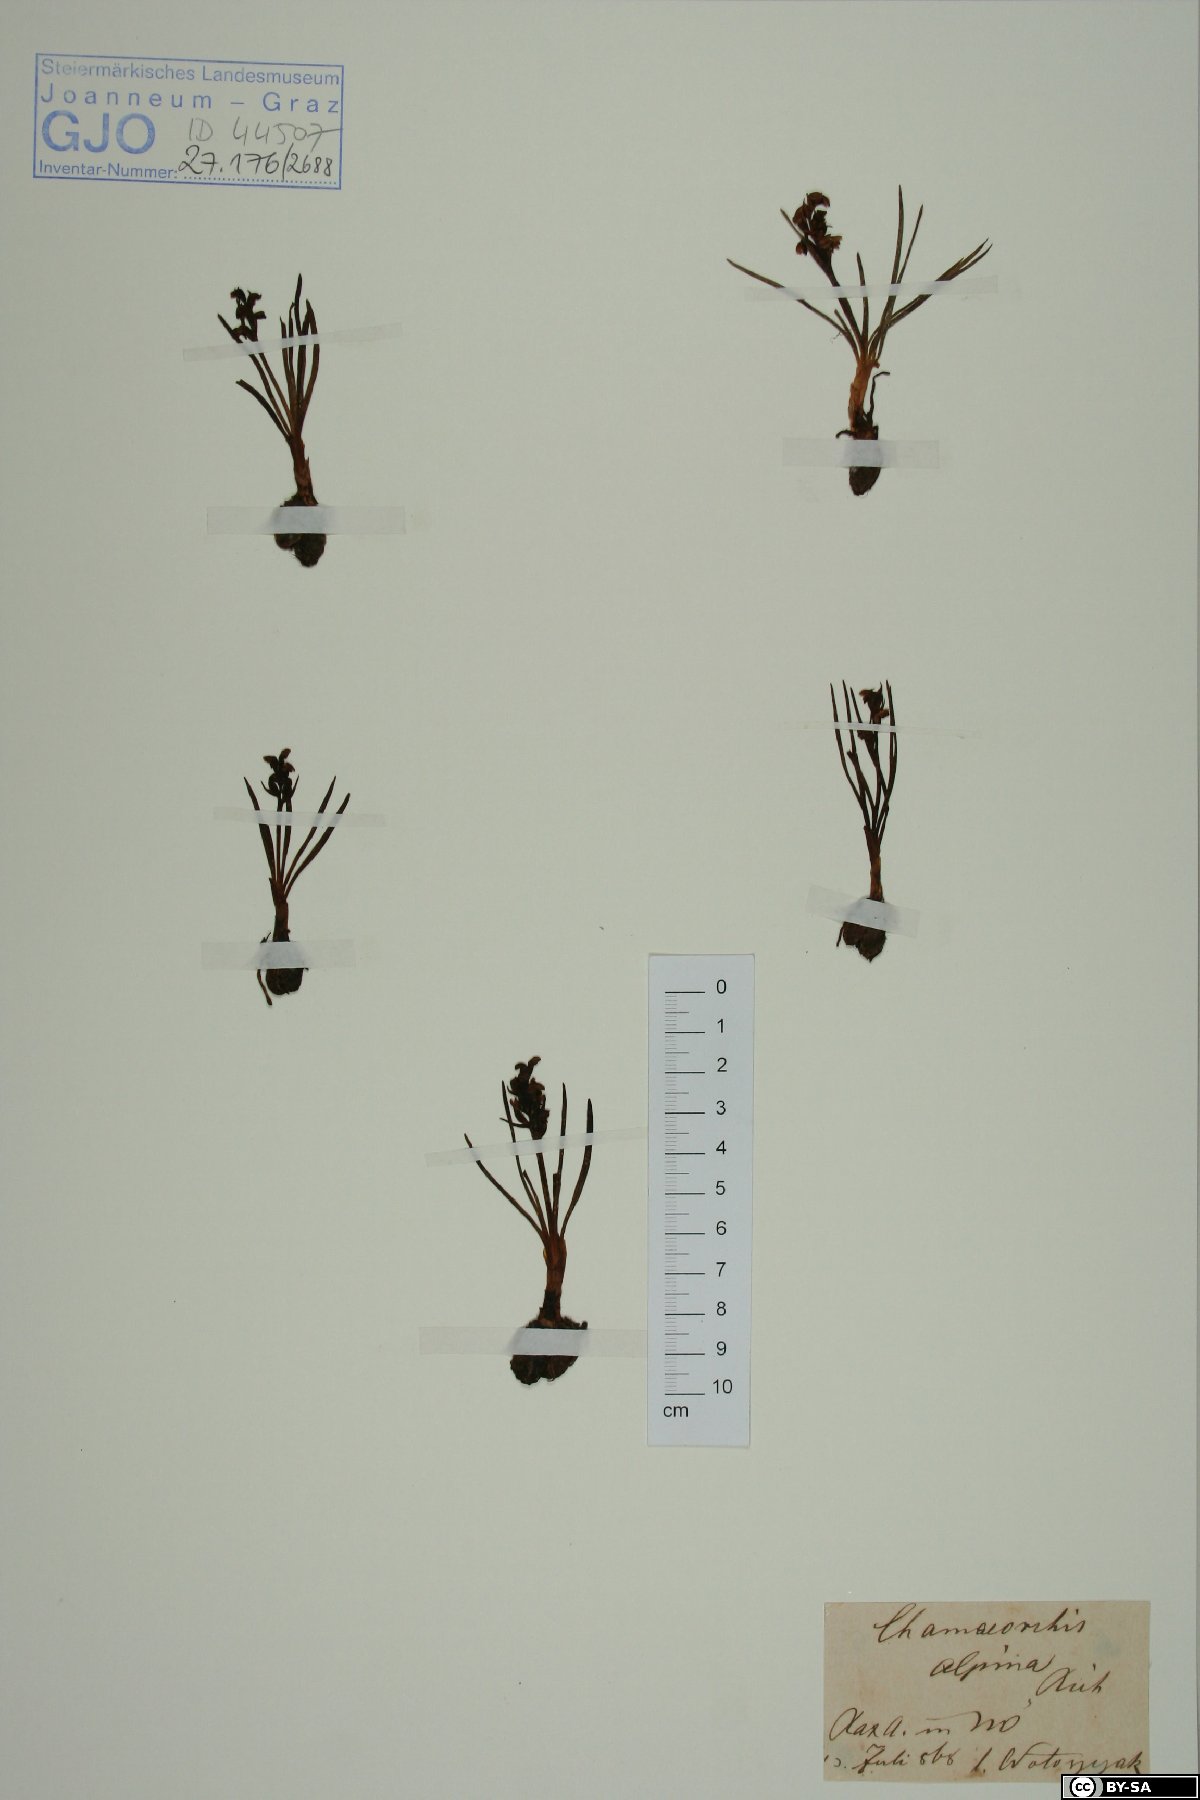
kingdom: Plantae
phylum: Tracheophyta
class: Liliopsida
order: Asparagales
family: Orchidaceae
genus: Chamorchis
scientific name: Chamorchis alpina
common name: Alpine chamorchis
